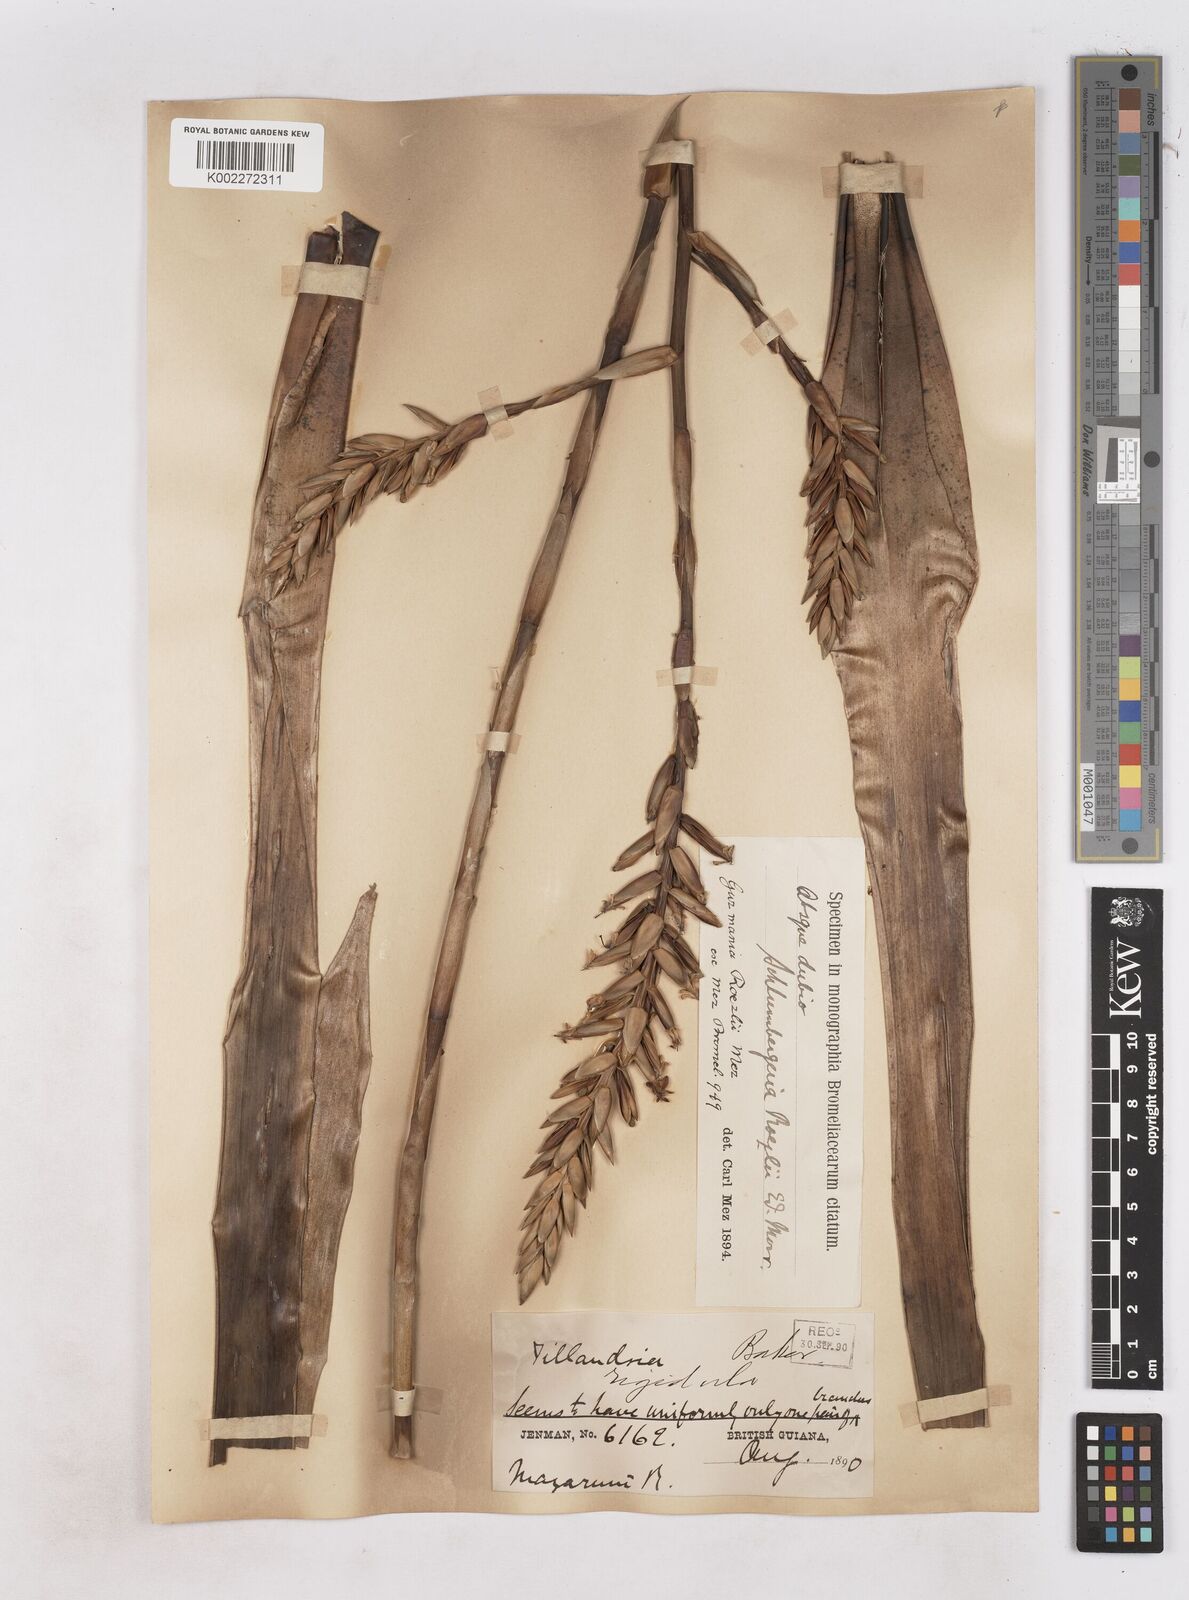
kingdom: Plantae
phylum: Tracheophyta
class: Liliopsida
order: Poales
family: Bromeliaceae
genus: Guzmania
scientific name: Guzmania roezlii
